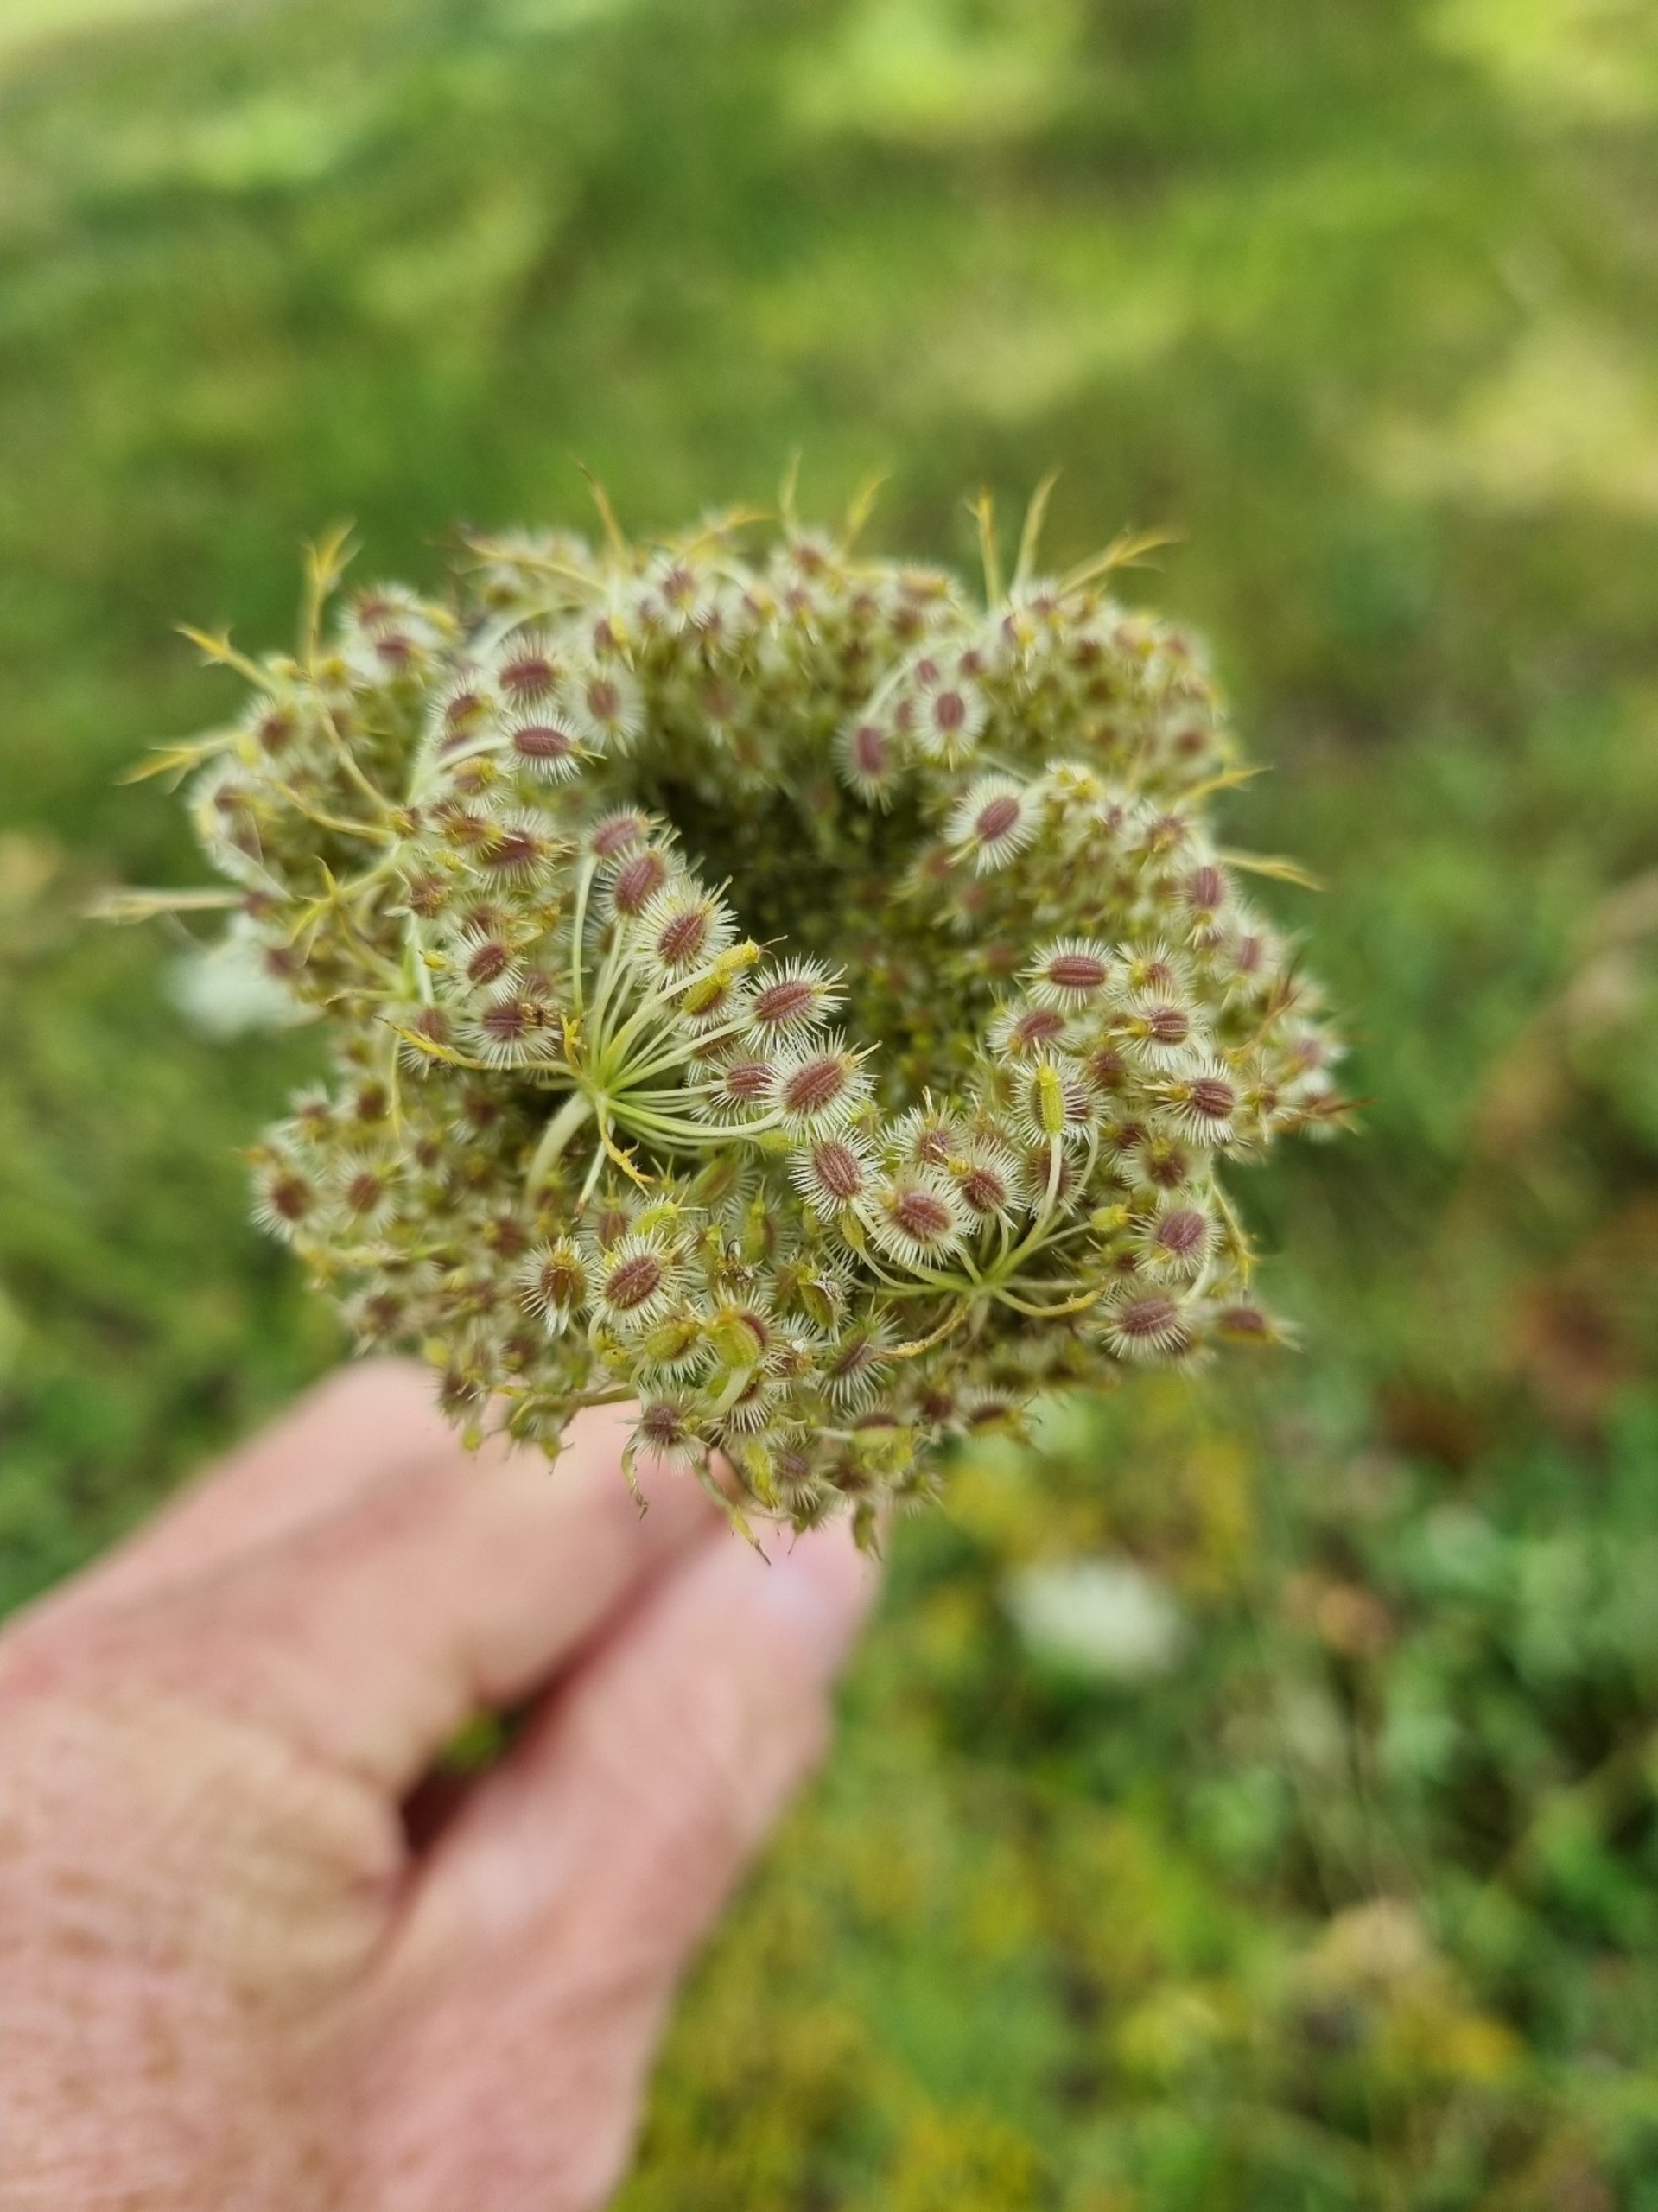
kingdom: Plantae
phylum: Tracheophyta
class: Magnoliopsida
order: Apiales
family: Apiaceae
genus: Daucus
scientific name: Daucus carota
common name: Vild gulerod
